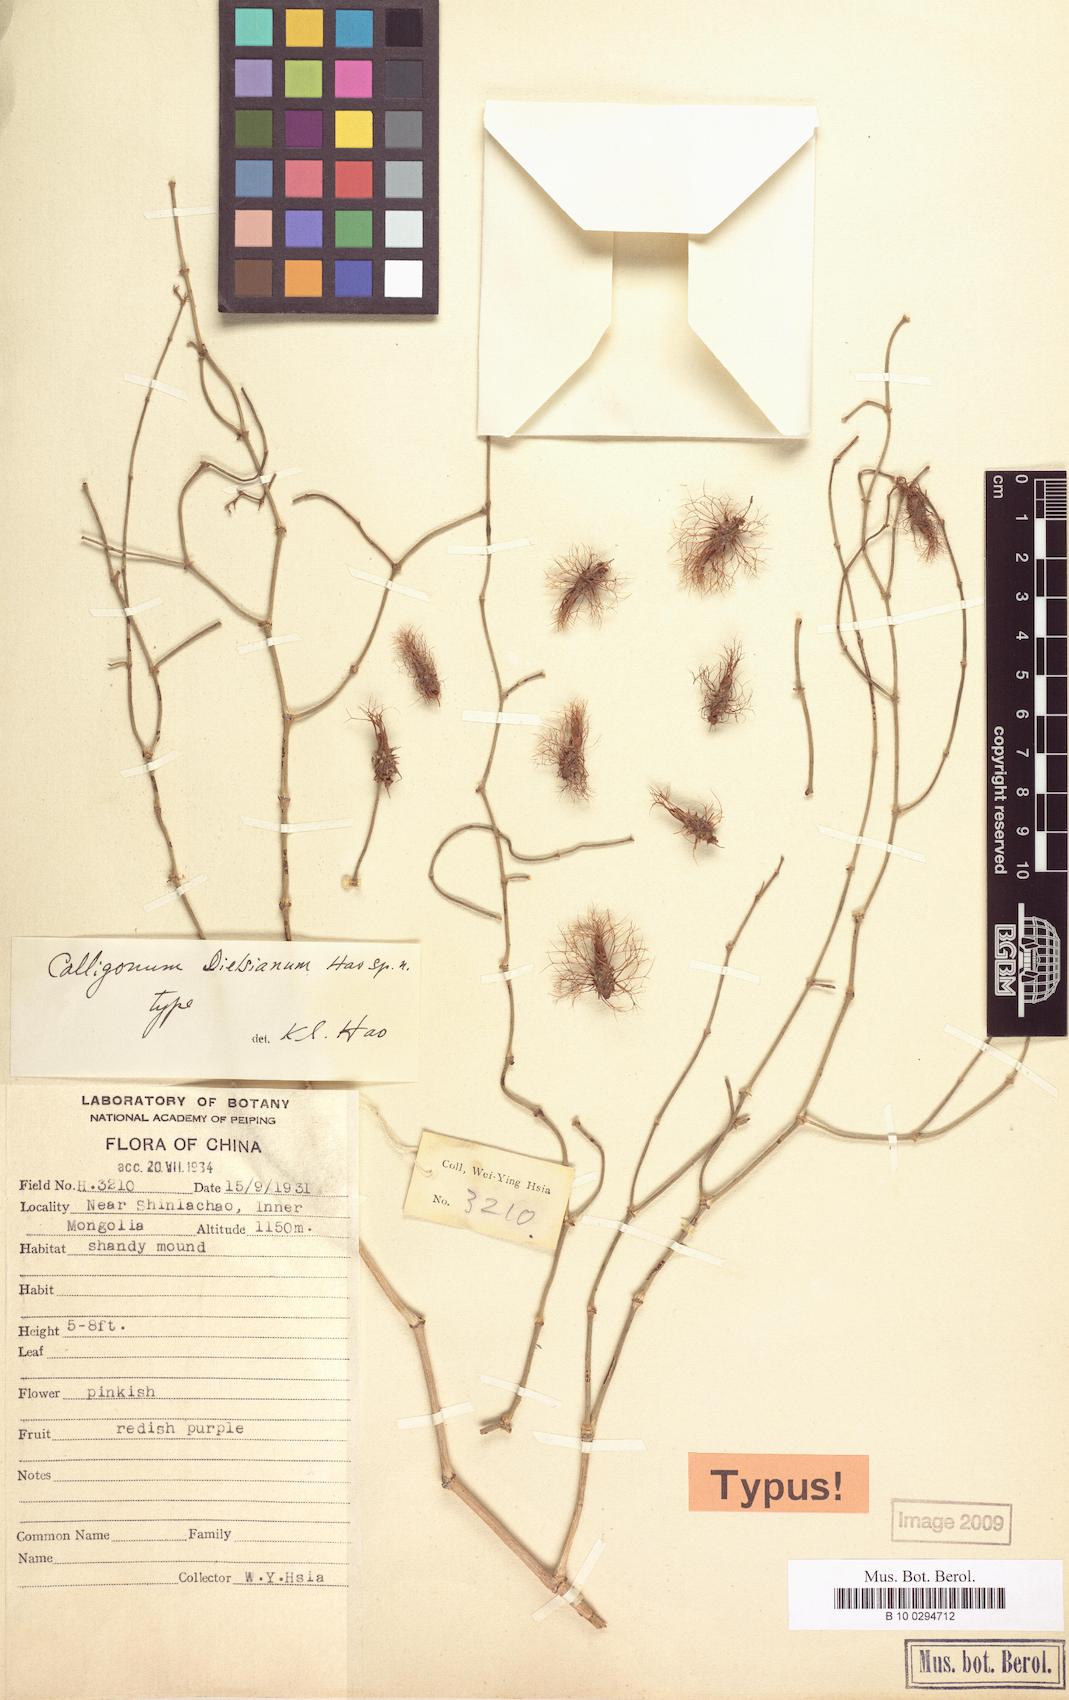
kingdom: Plantae
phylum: Tracheophyta
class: Magnoliopsida
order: Caryophyllales
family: Polygonaceae
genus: Calligonum
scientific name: Calligonum mongolicum
